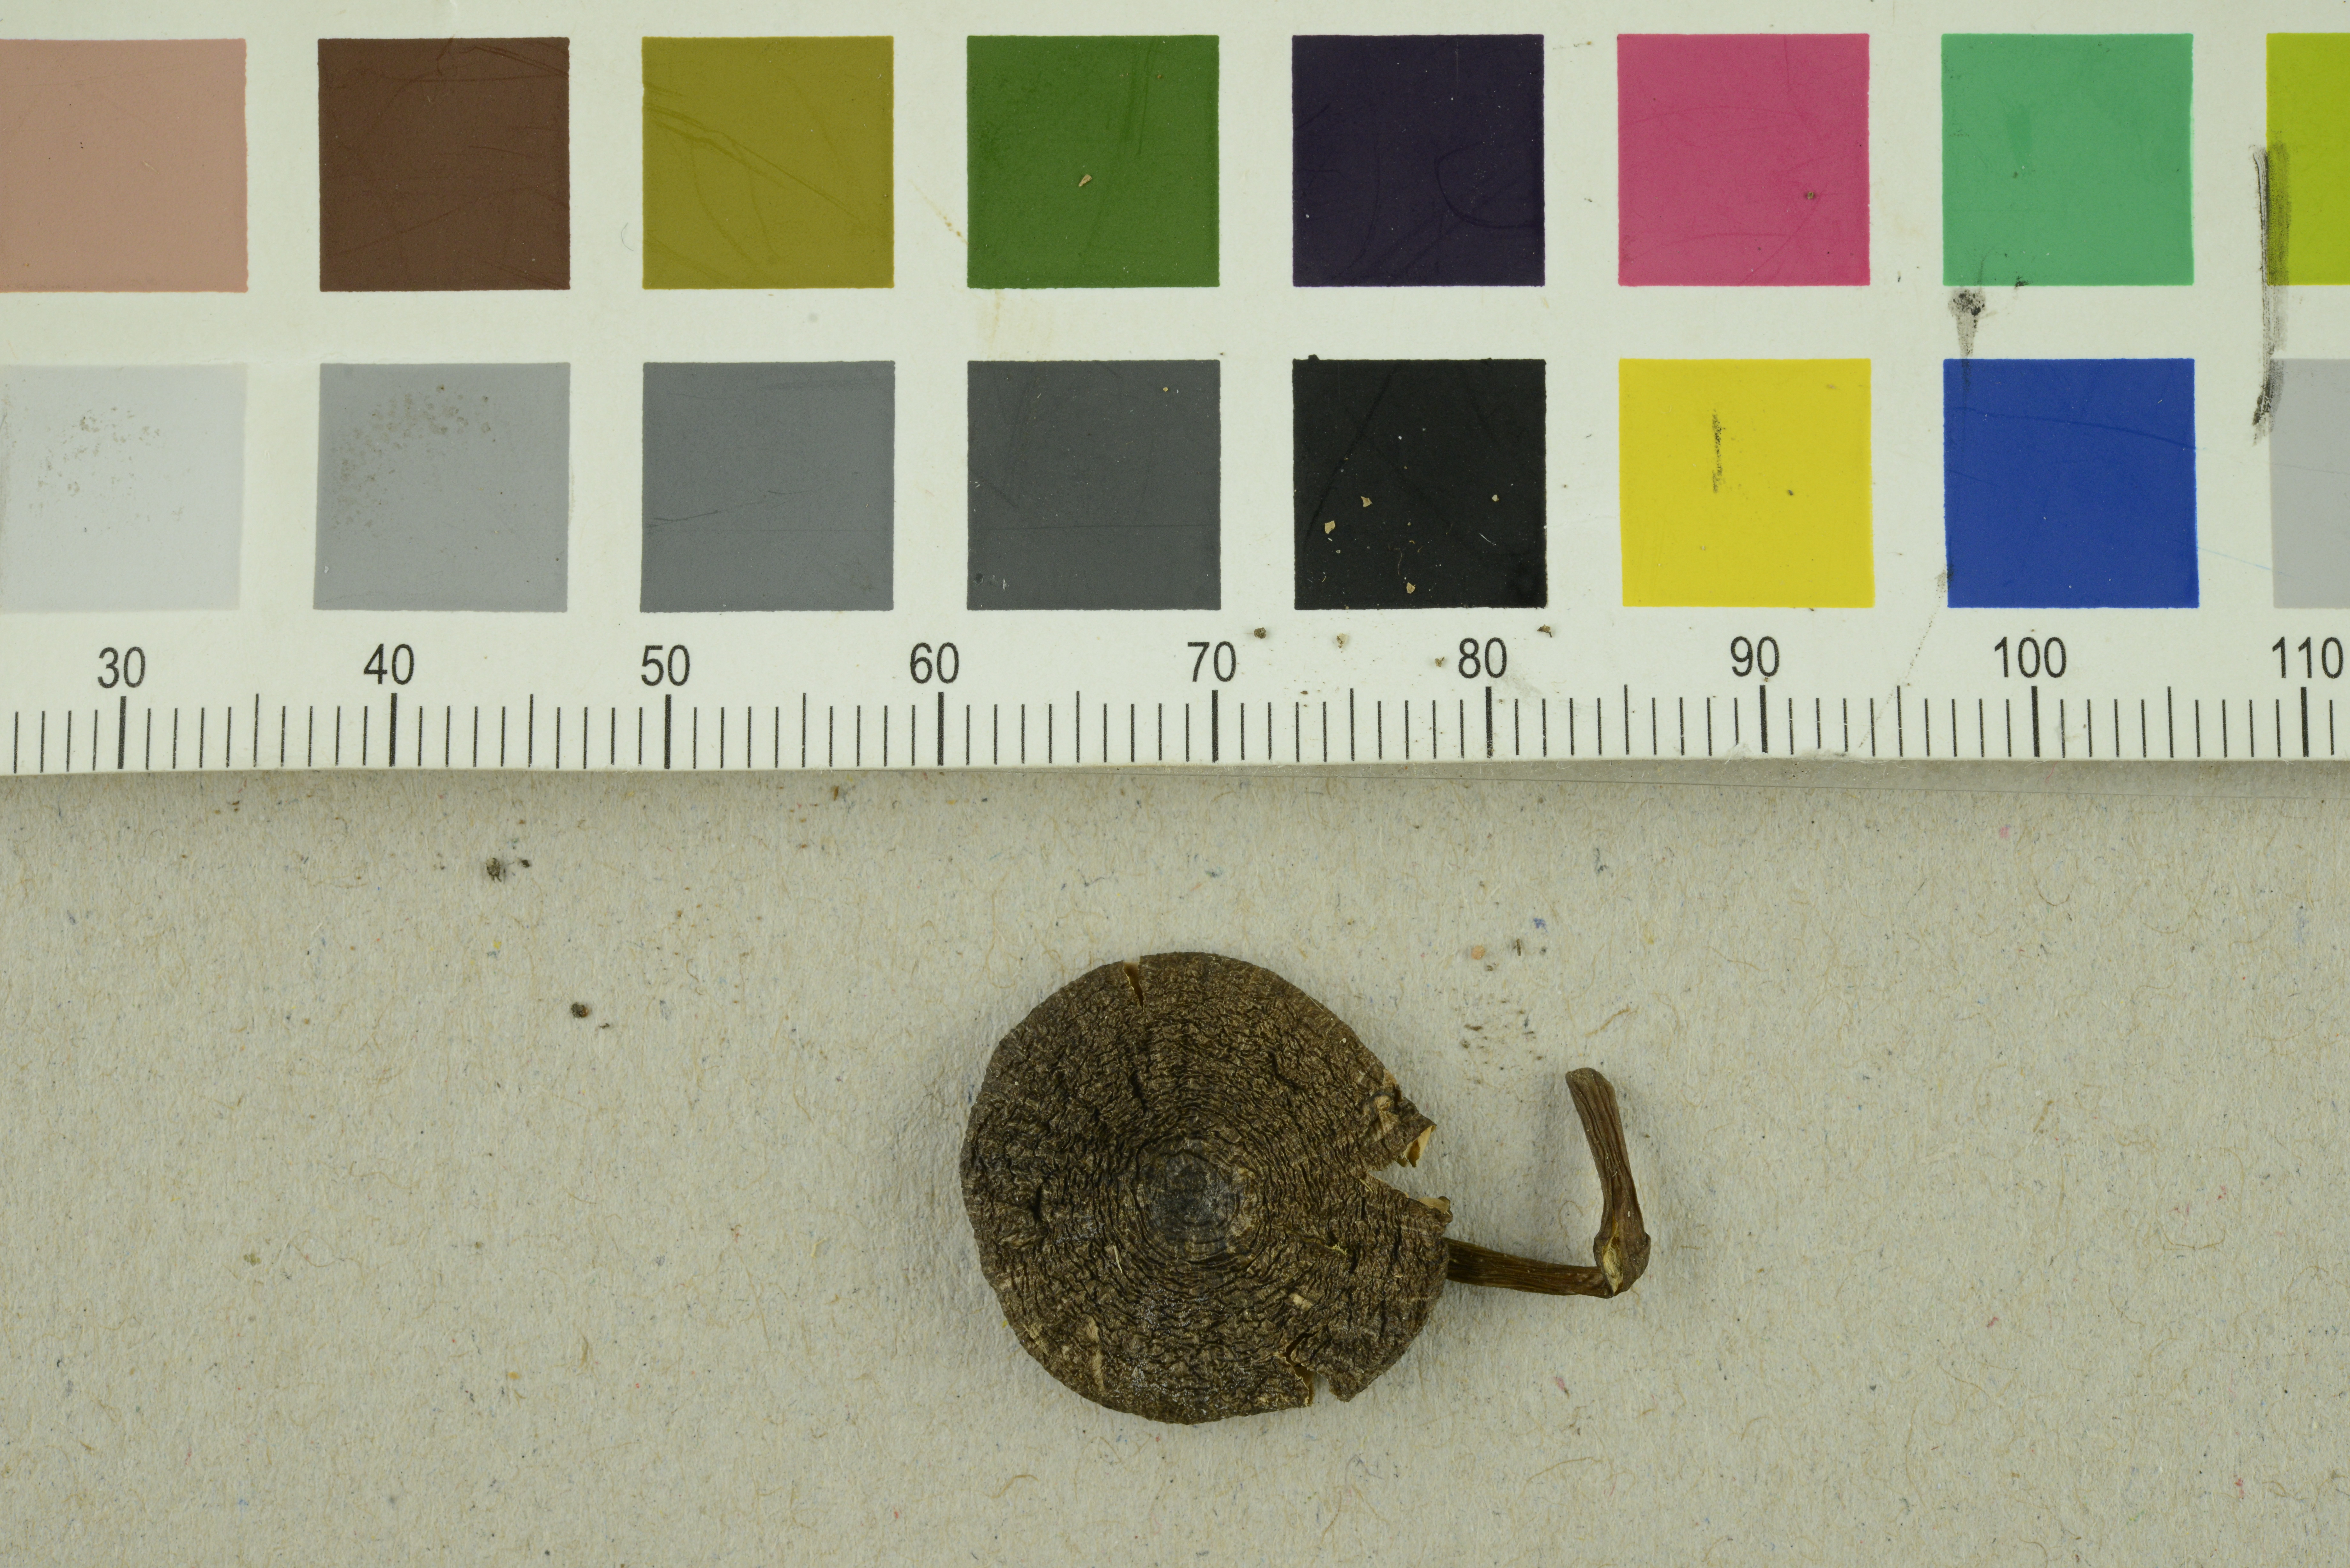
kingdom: Fungi
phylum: Basidiomycota
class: Agaricomycetes
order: Agaricales
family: Entolomataceae
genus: Entoloma
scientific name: Entoloma serrulatum
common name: Blue edge pinkgill
